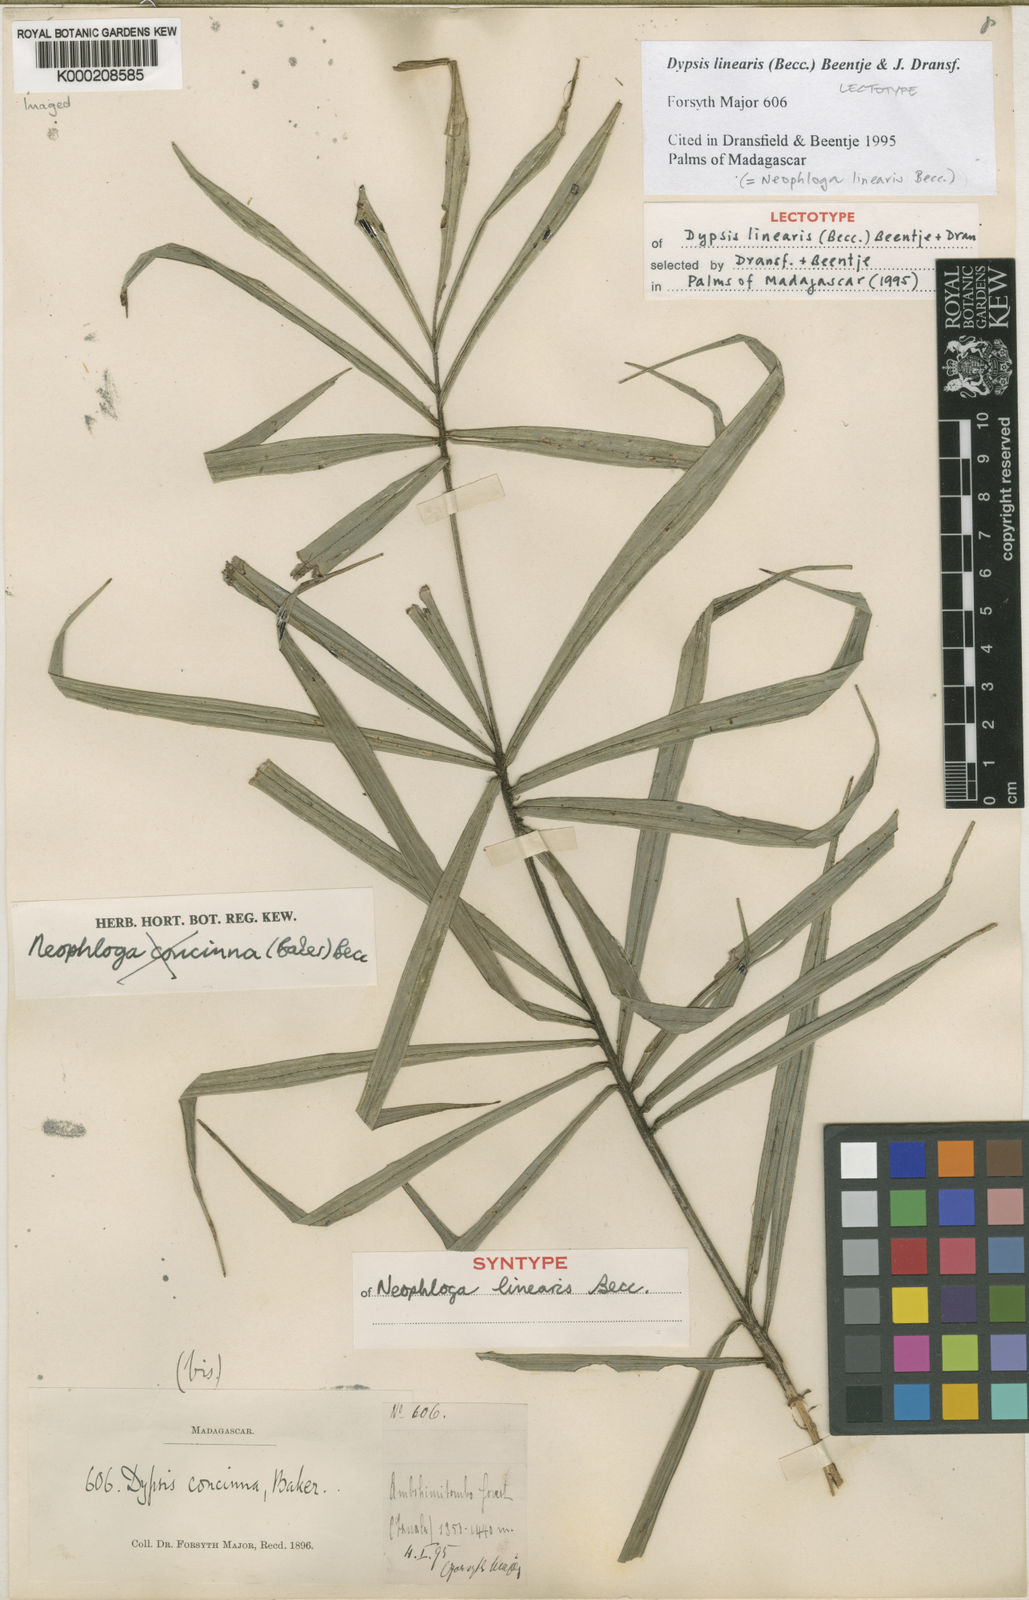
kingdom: Plantae
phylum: Tracheophyta
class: Liliopsida
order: Arecales
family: Arecaceae
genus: Dypsis
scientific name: Dypsis procumbens
